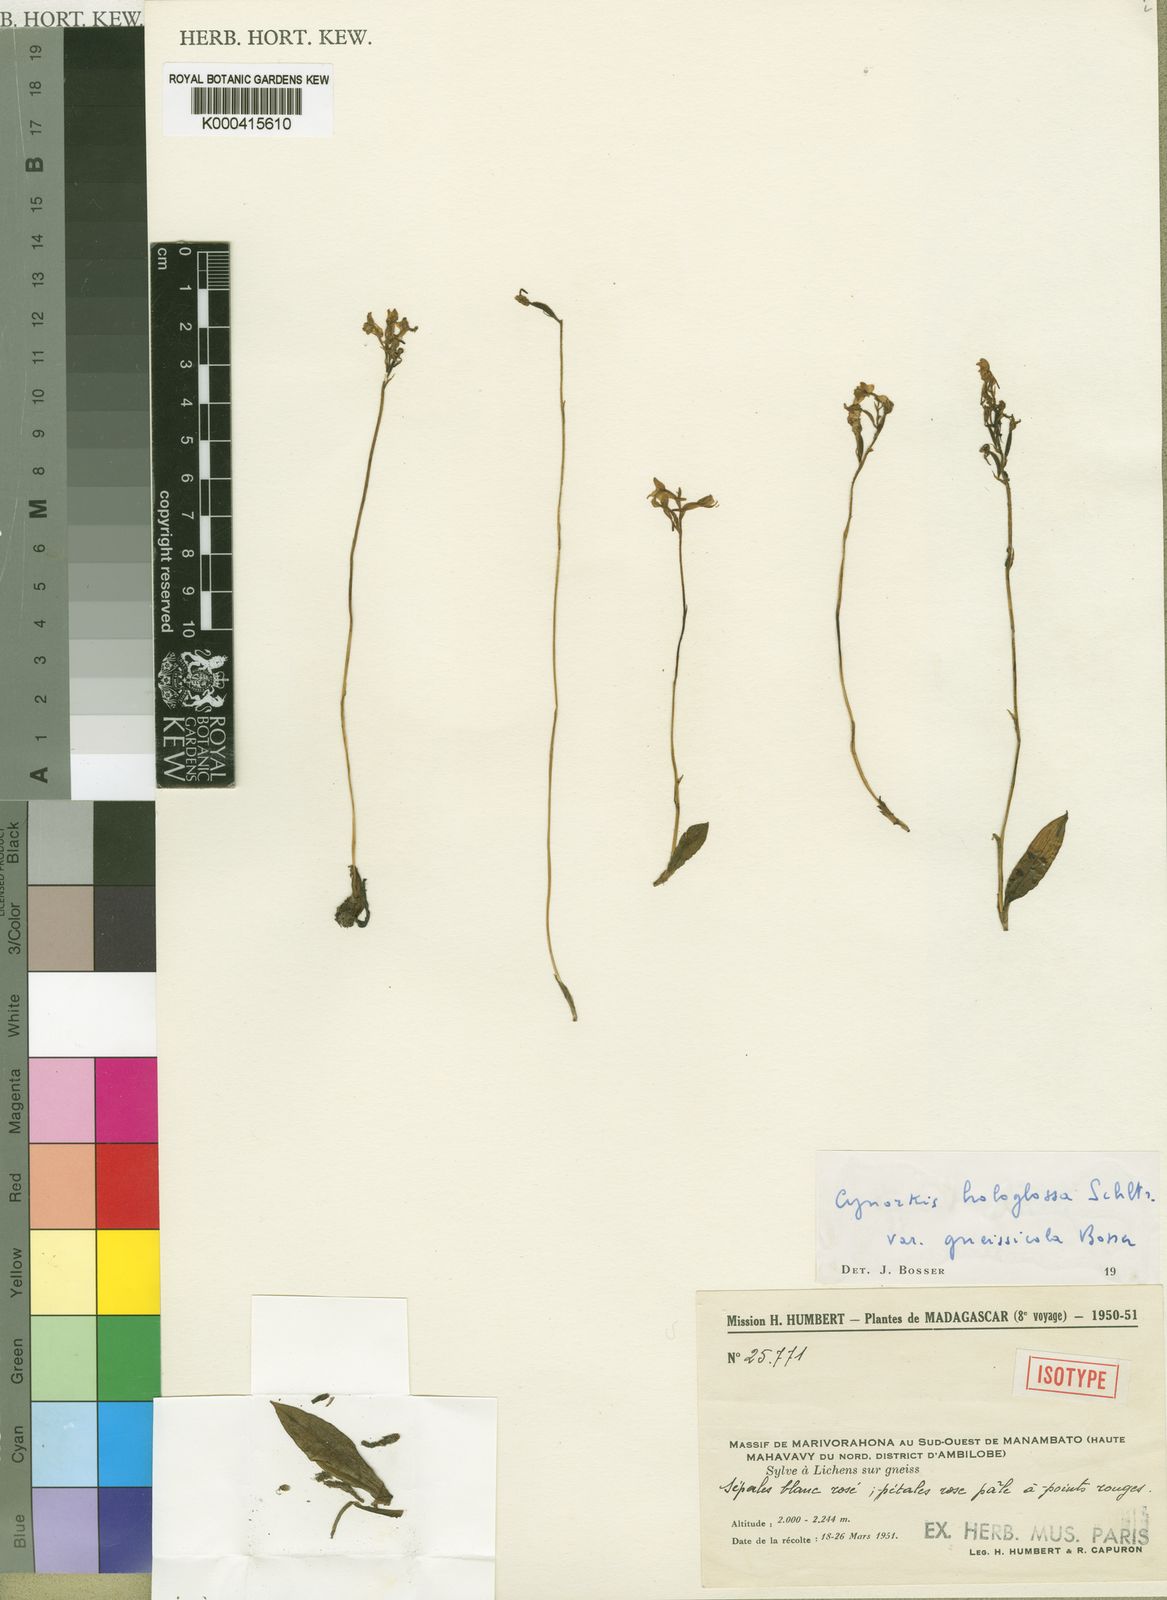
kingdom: Plantae
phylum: Tracheophyta
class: Liliopsida
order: Asparagales
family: Orchidaceae
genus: Cynorkis
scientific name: Cynorkis hologlossa
